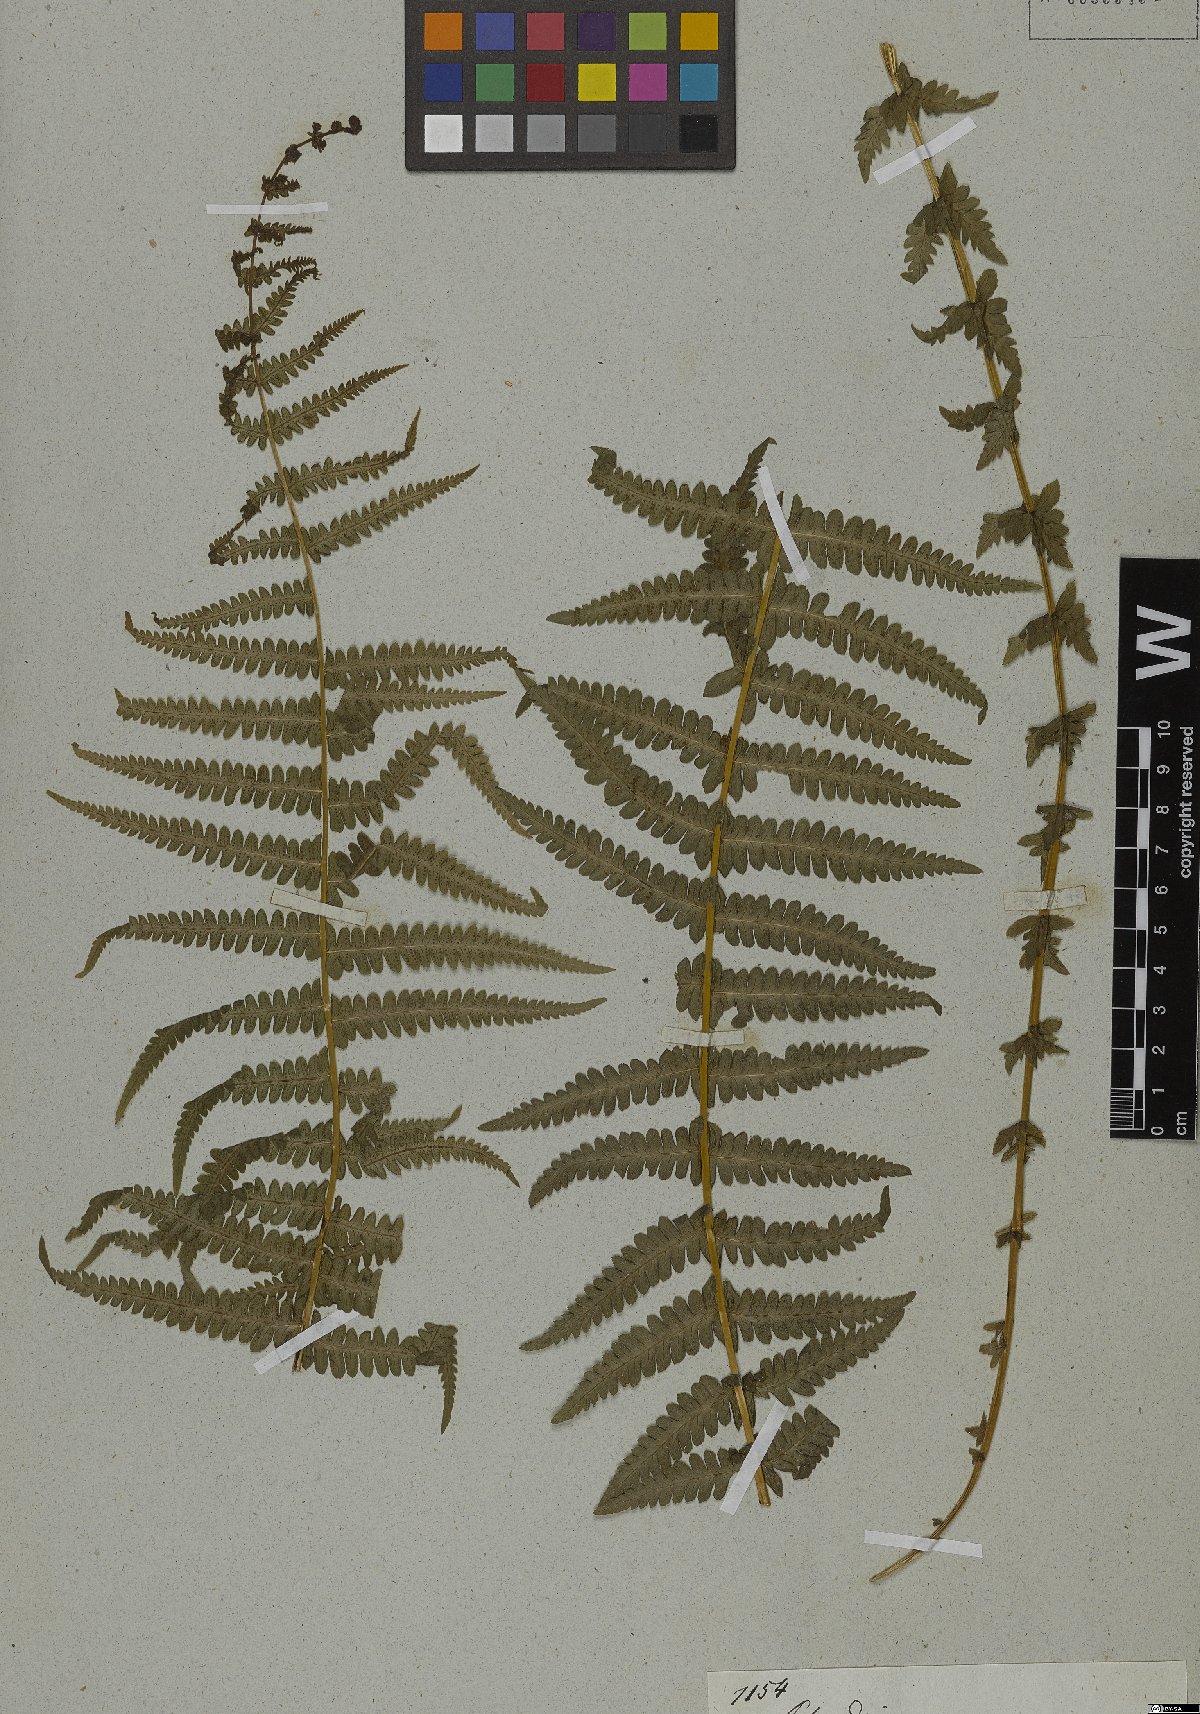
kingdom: Plantae
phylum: Tracheophyta
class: Polypodiopsida
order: Polypodiales
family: Thelypteridaceae
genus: Amauropelta
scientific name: Amauropelta opposita
